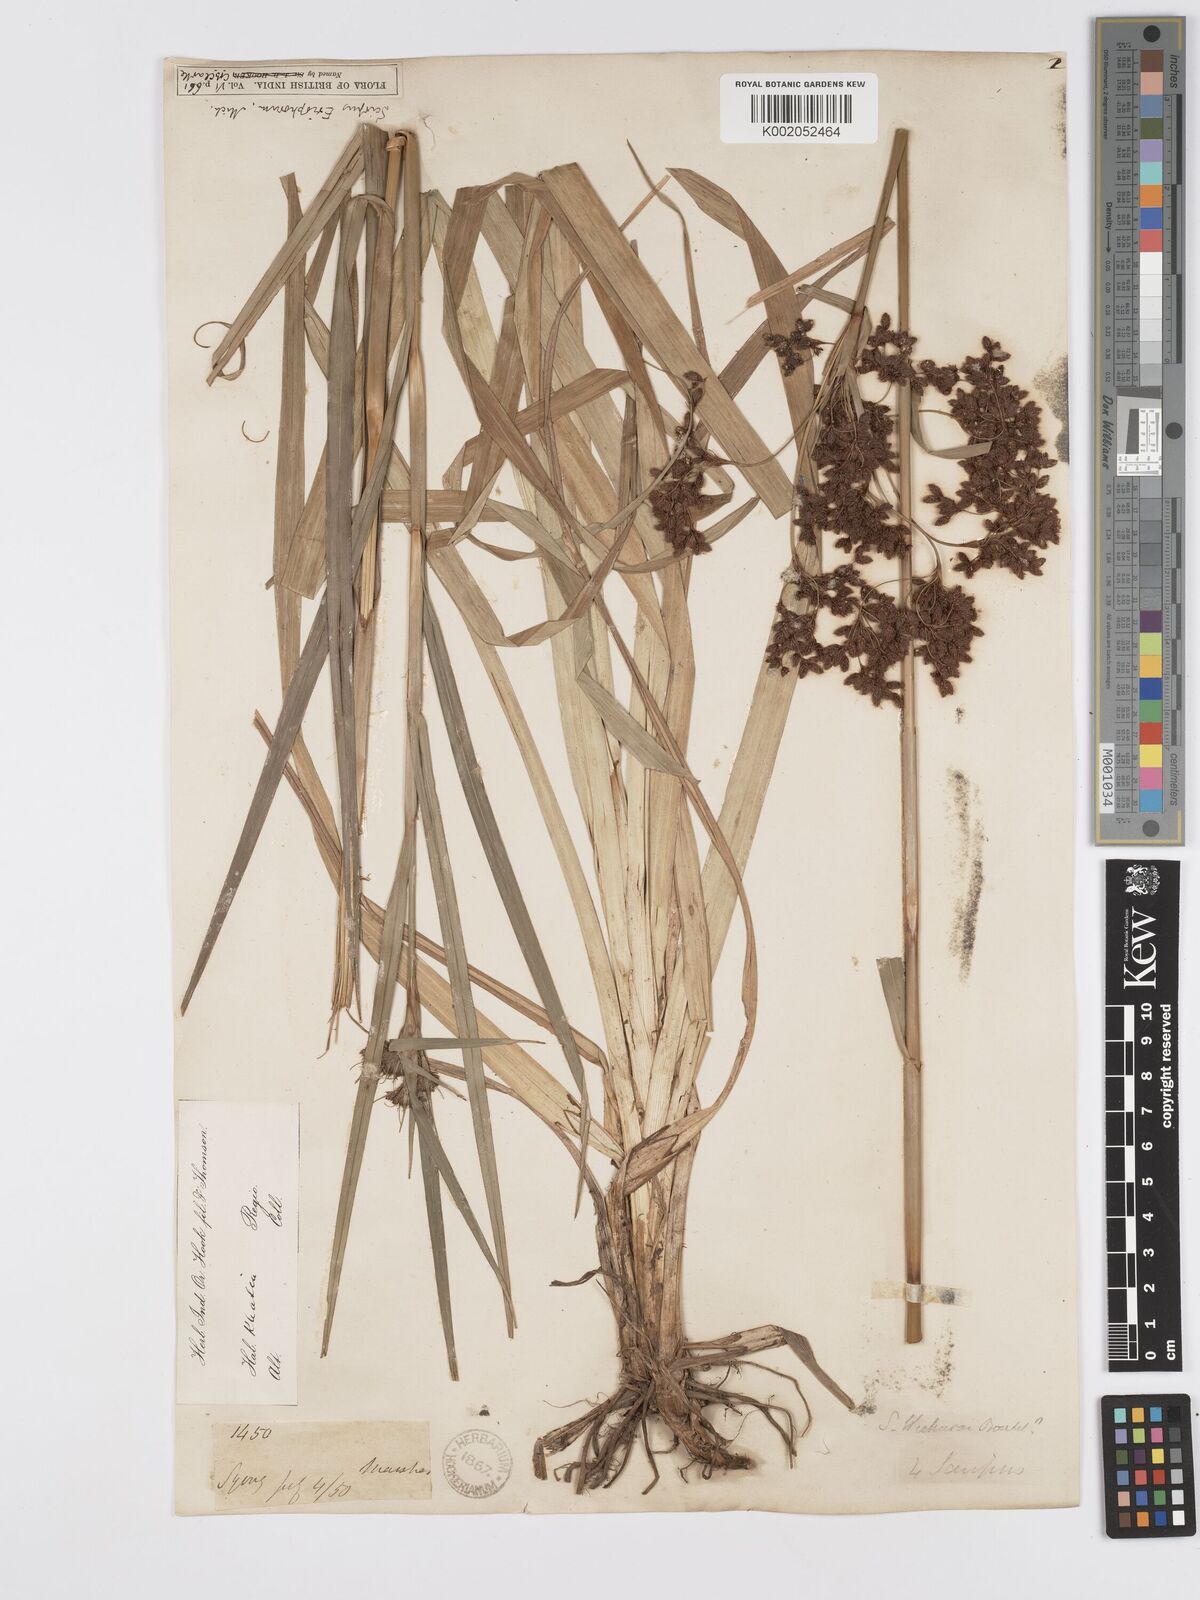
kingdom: Plantae
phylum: Tracheophyta
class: Liliopsida
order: Poales
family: Cyperaceae
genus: Scirpus
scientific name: Scirpus cyperinus
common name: Black-sheathed bulrush
